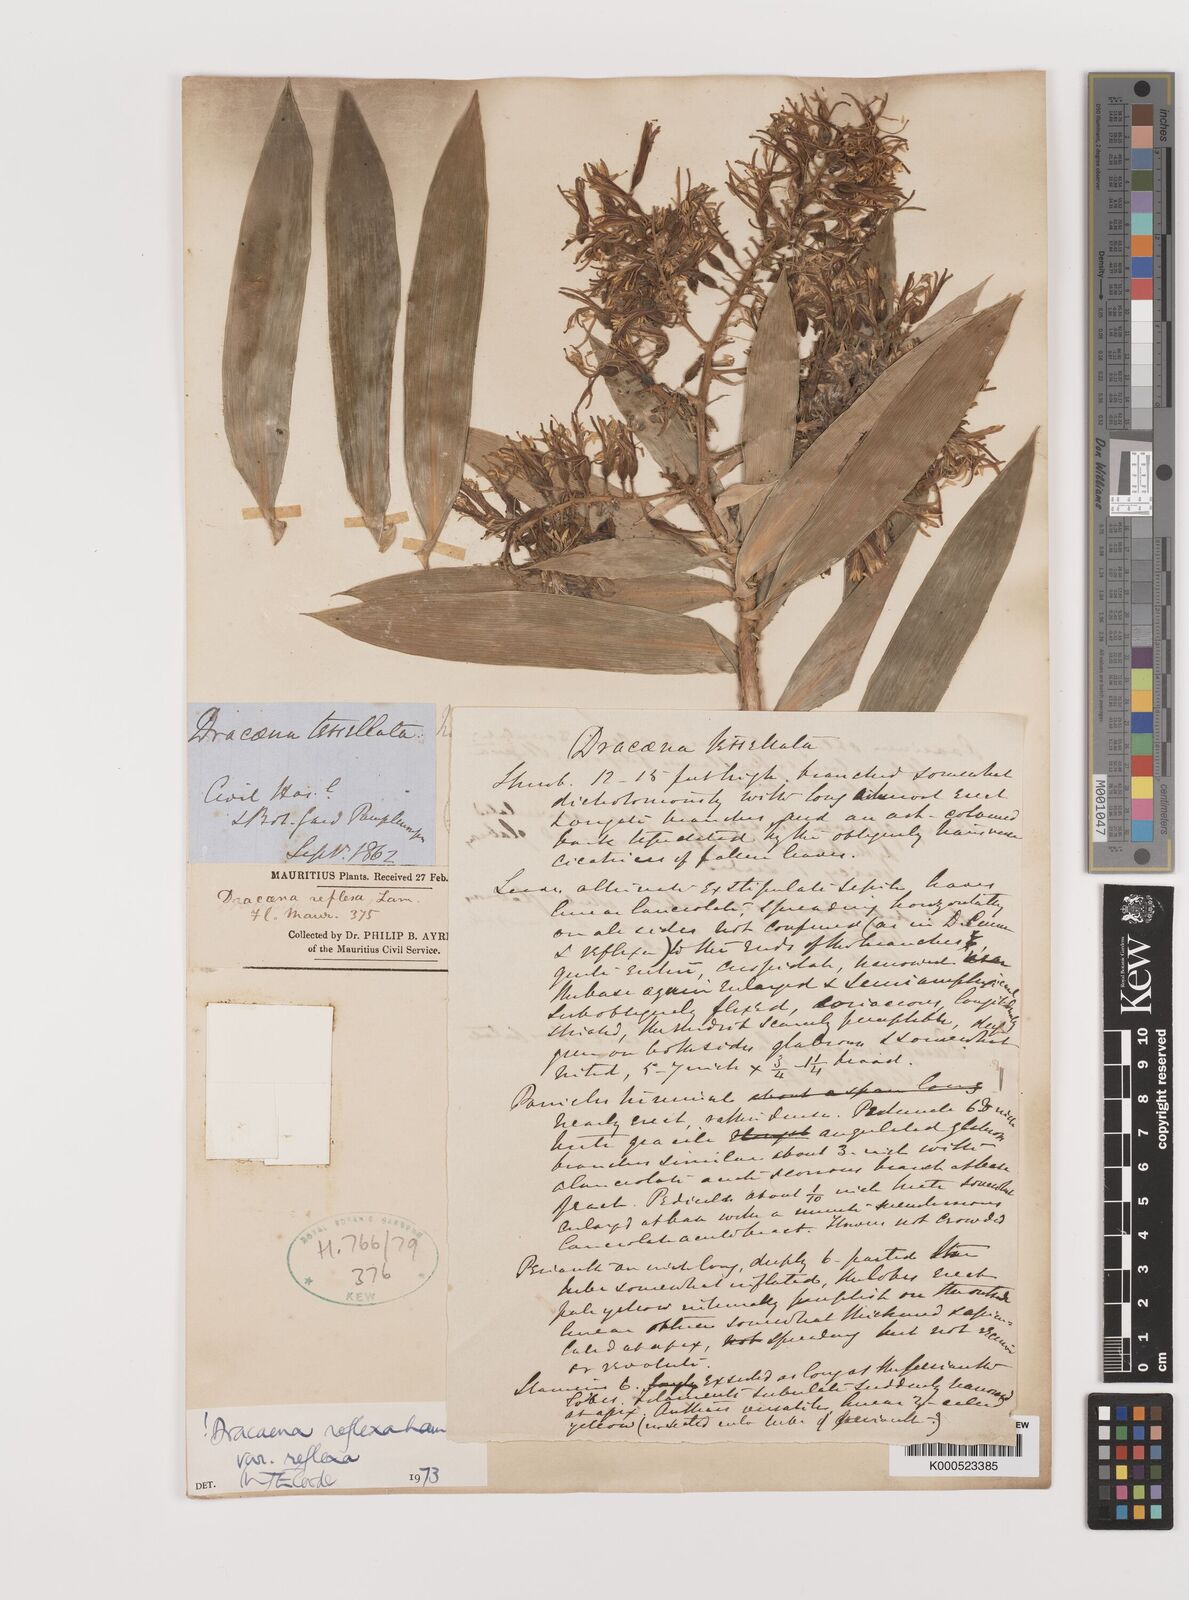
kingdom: Plantae
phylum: Tracheophyta
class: Liliopsida
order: Asparagales
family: Asparagaceae
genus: Dracaena
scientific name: Dracaena reflexa
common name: Song-of-india
